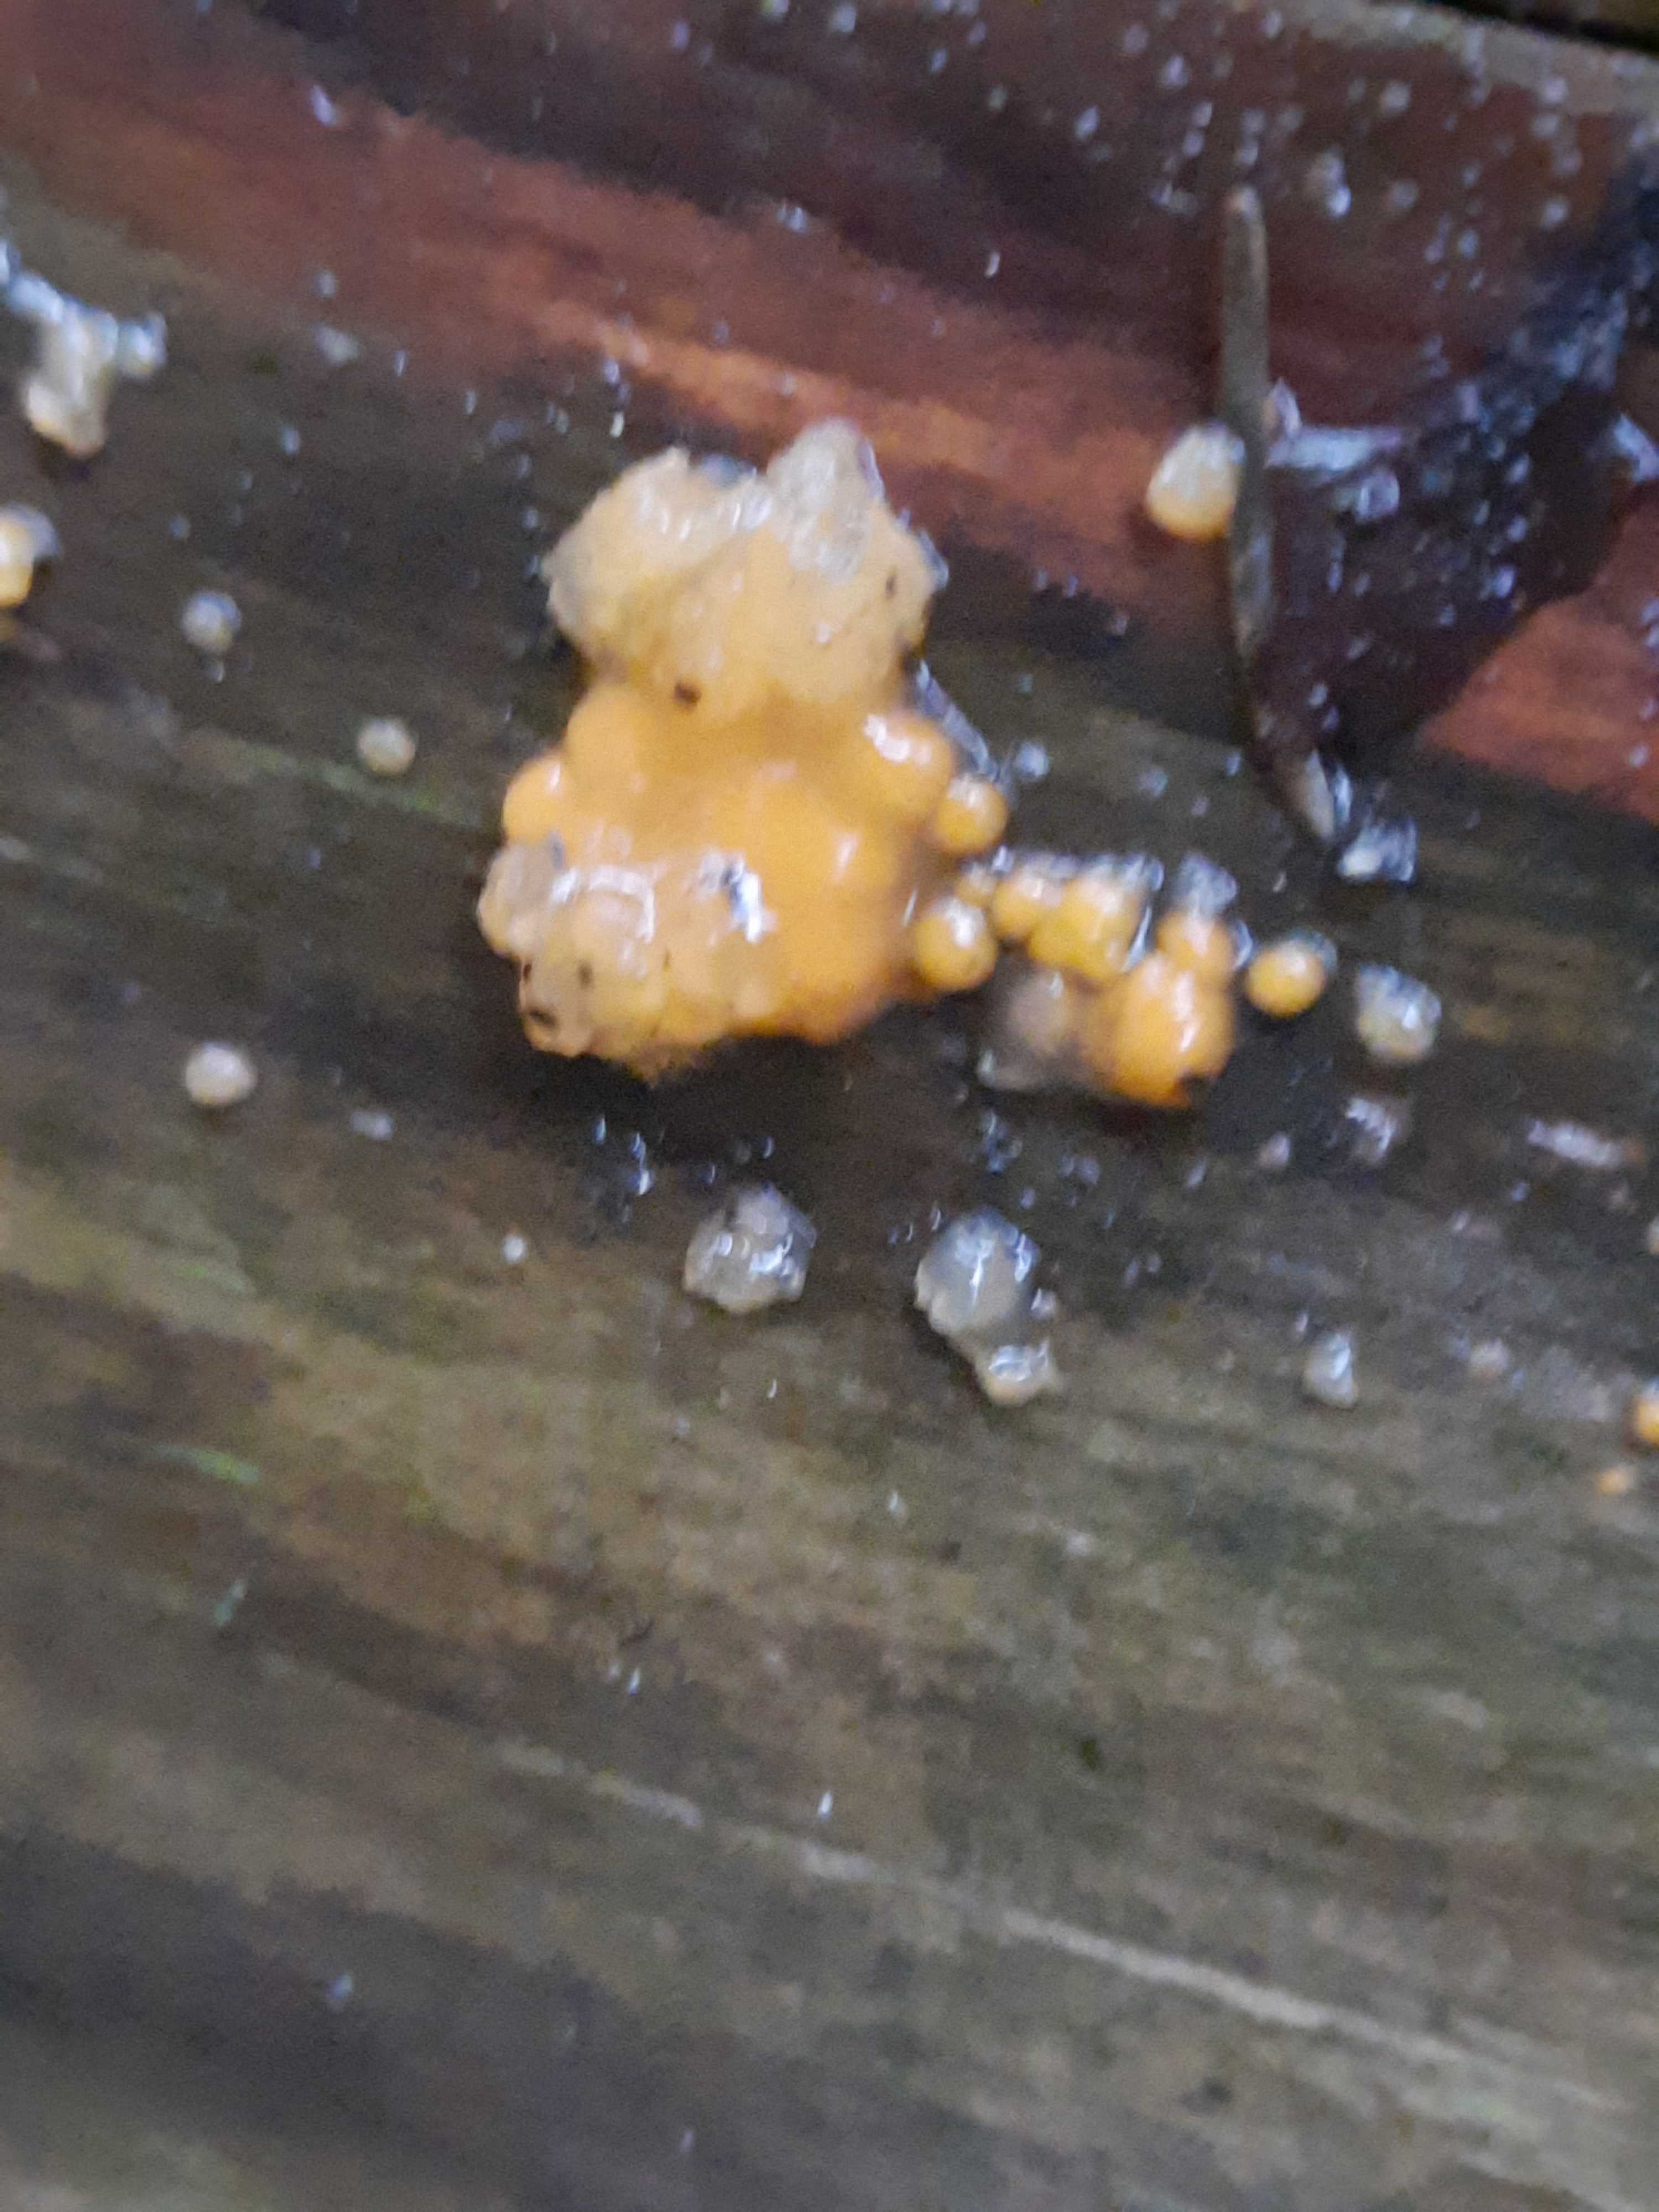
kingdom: Fungi
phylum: Basidiomycota
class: Dacrymycetes
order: Dacrymycetales
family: Dacrymycetaceae
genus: Dacrymyces
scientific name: Dacrymyces stillatus
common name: almindelig tåresvamp
